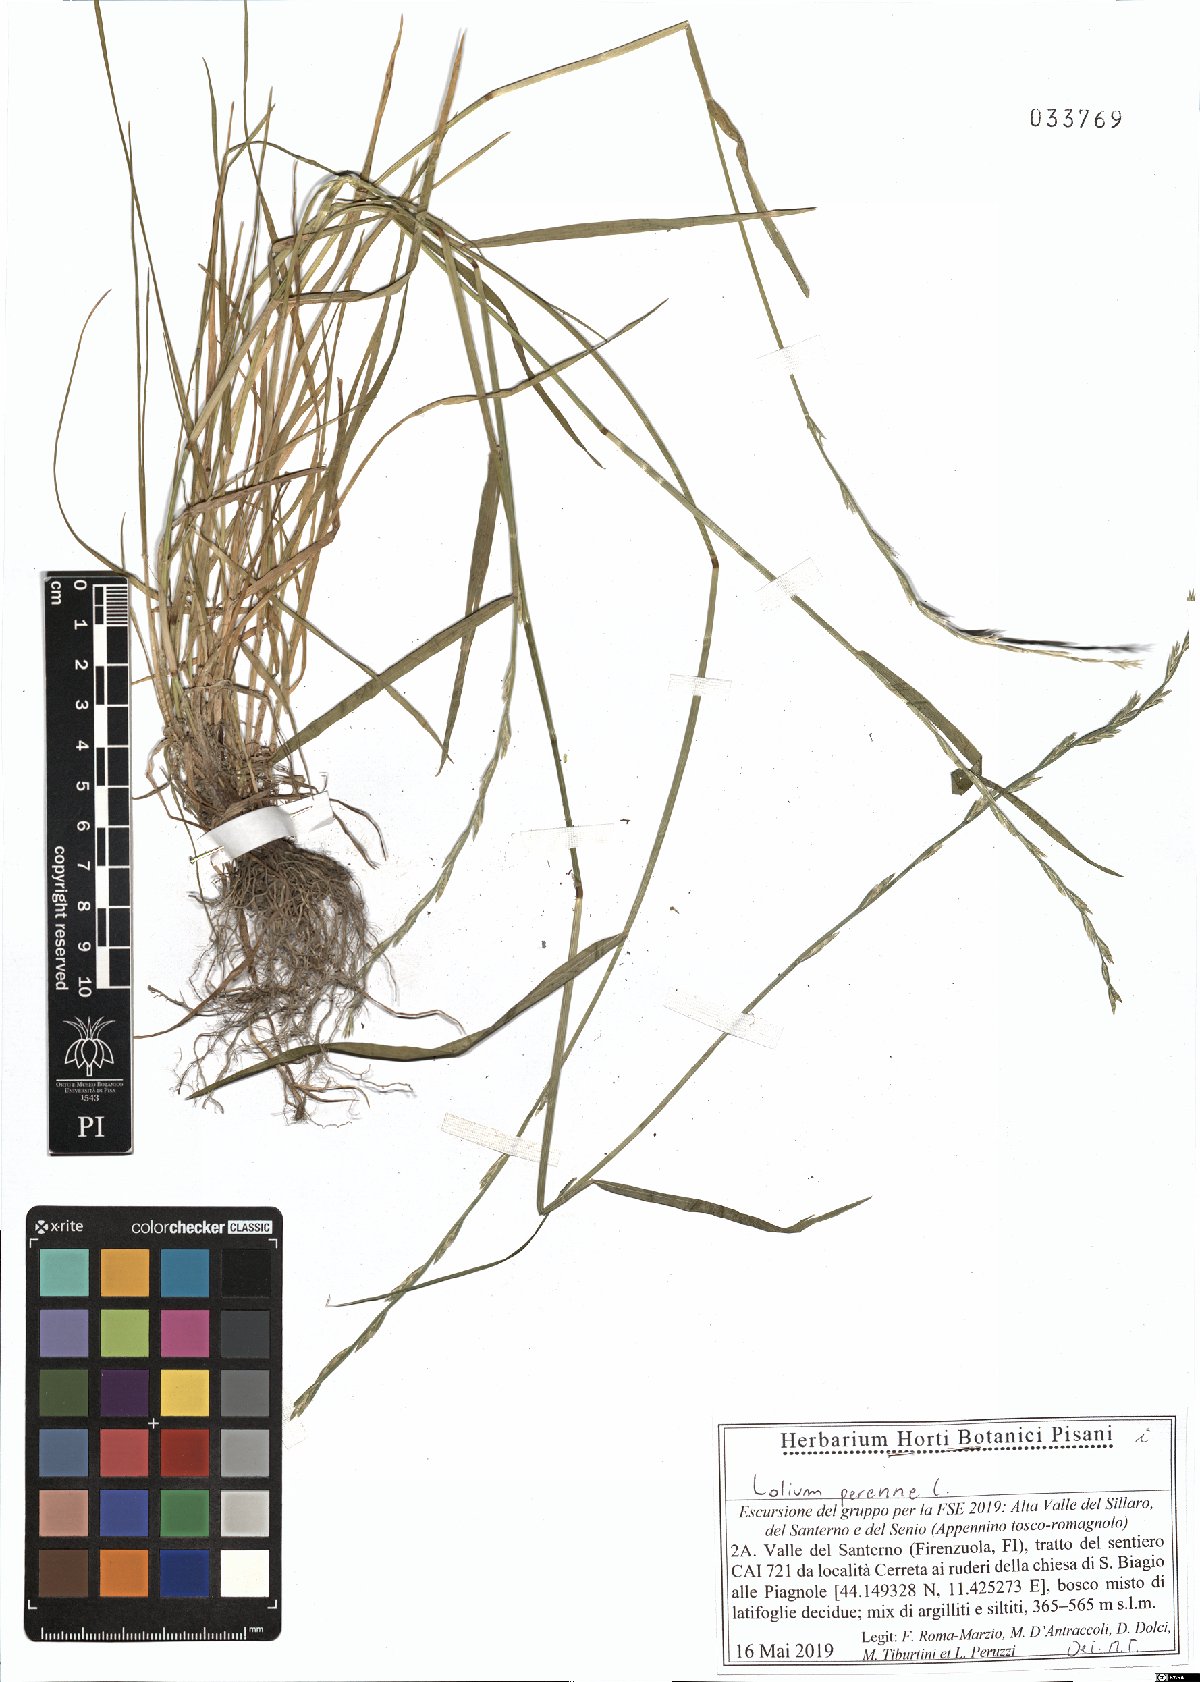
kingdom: Plantae
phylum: Tracheophyta
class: Liliopsida
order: Poales
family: Poaceae
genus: Lolium
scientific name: Lolium perenne
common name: Perennial ryegrass
